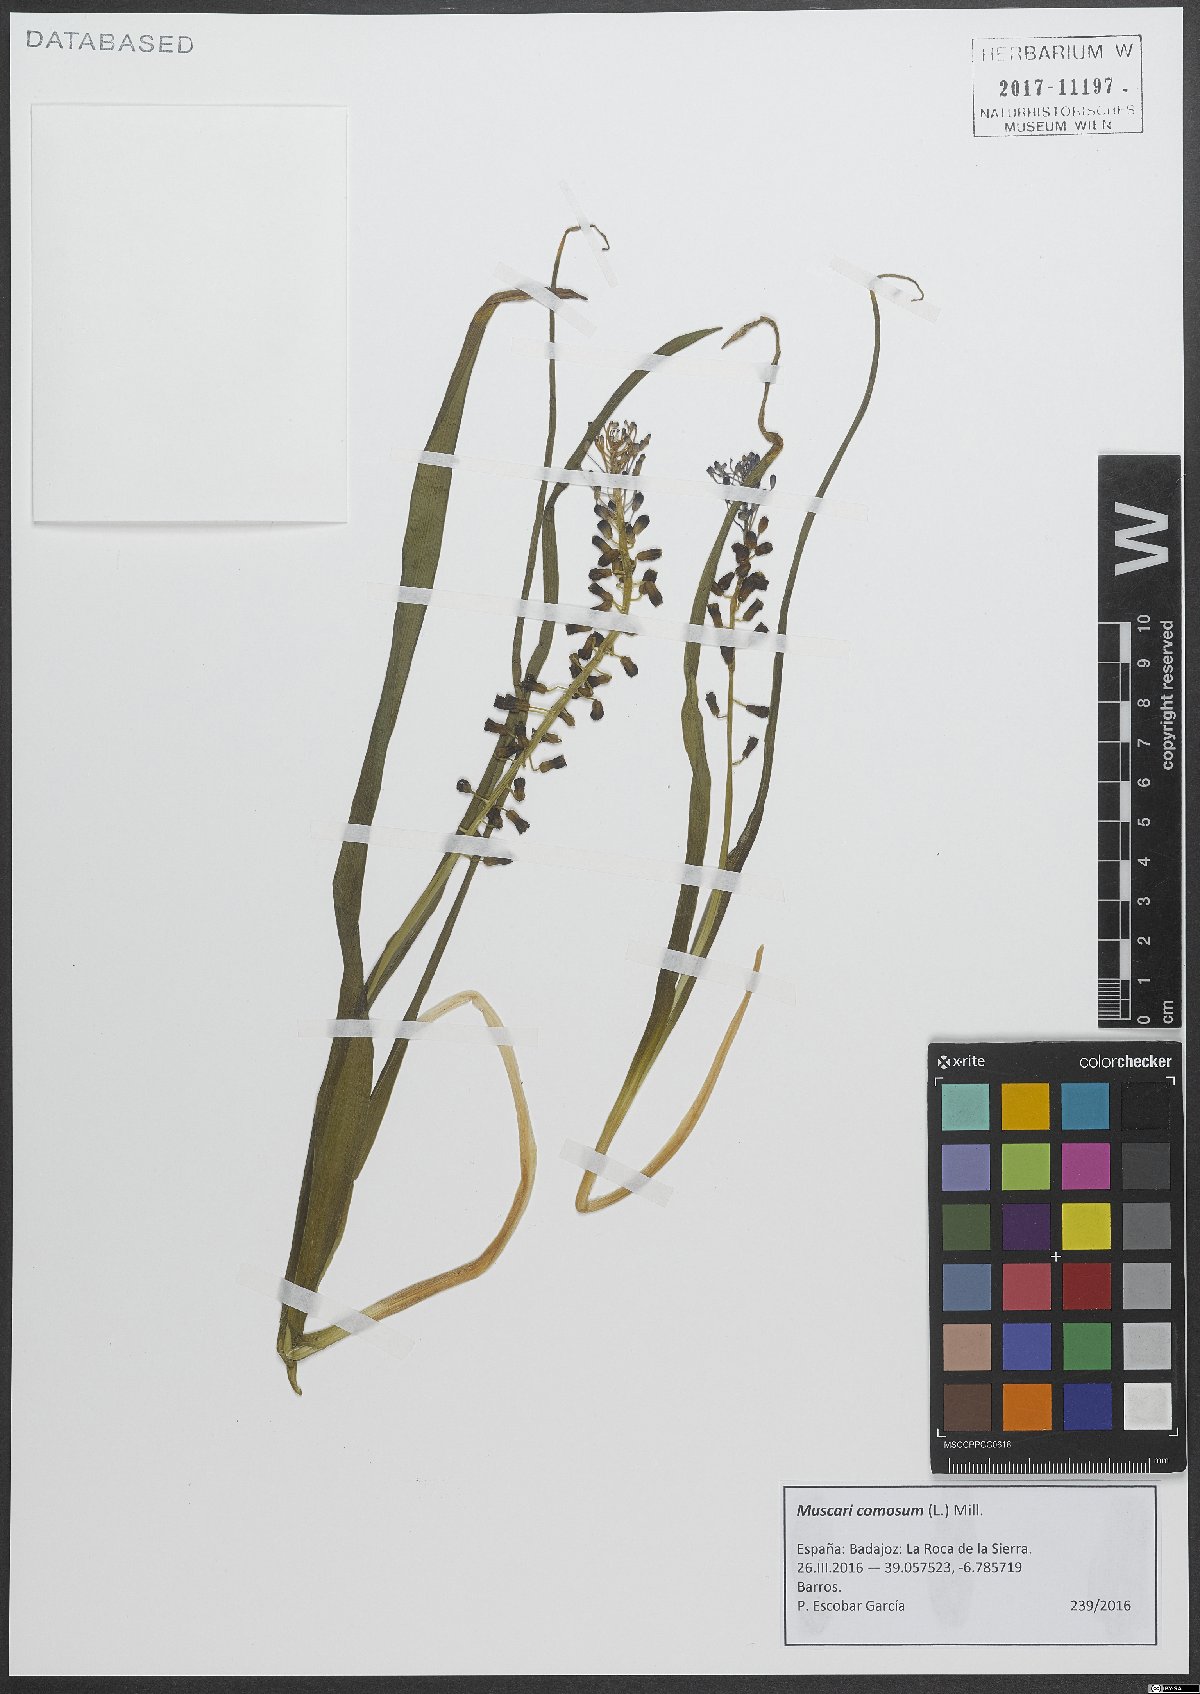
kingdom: Plantae
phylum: Tracheophyta
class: Liliopsida
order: Asparagales
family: Asparagaceae
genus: Muscari
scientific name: Muscari comosum
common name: Tassel hyacinth
